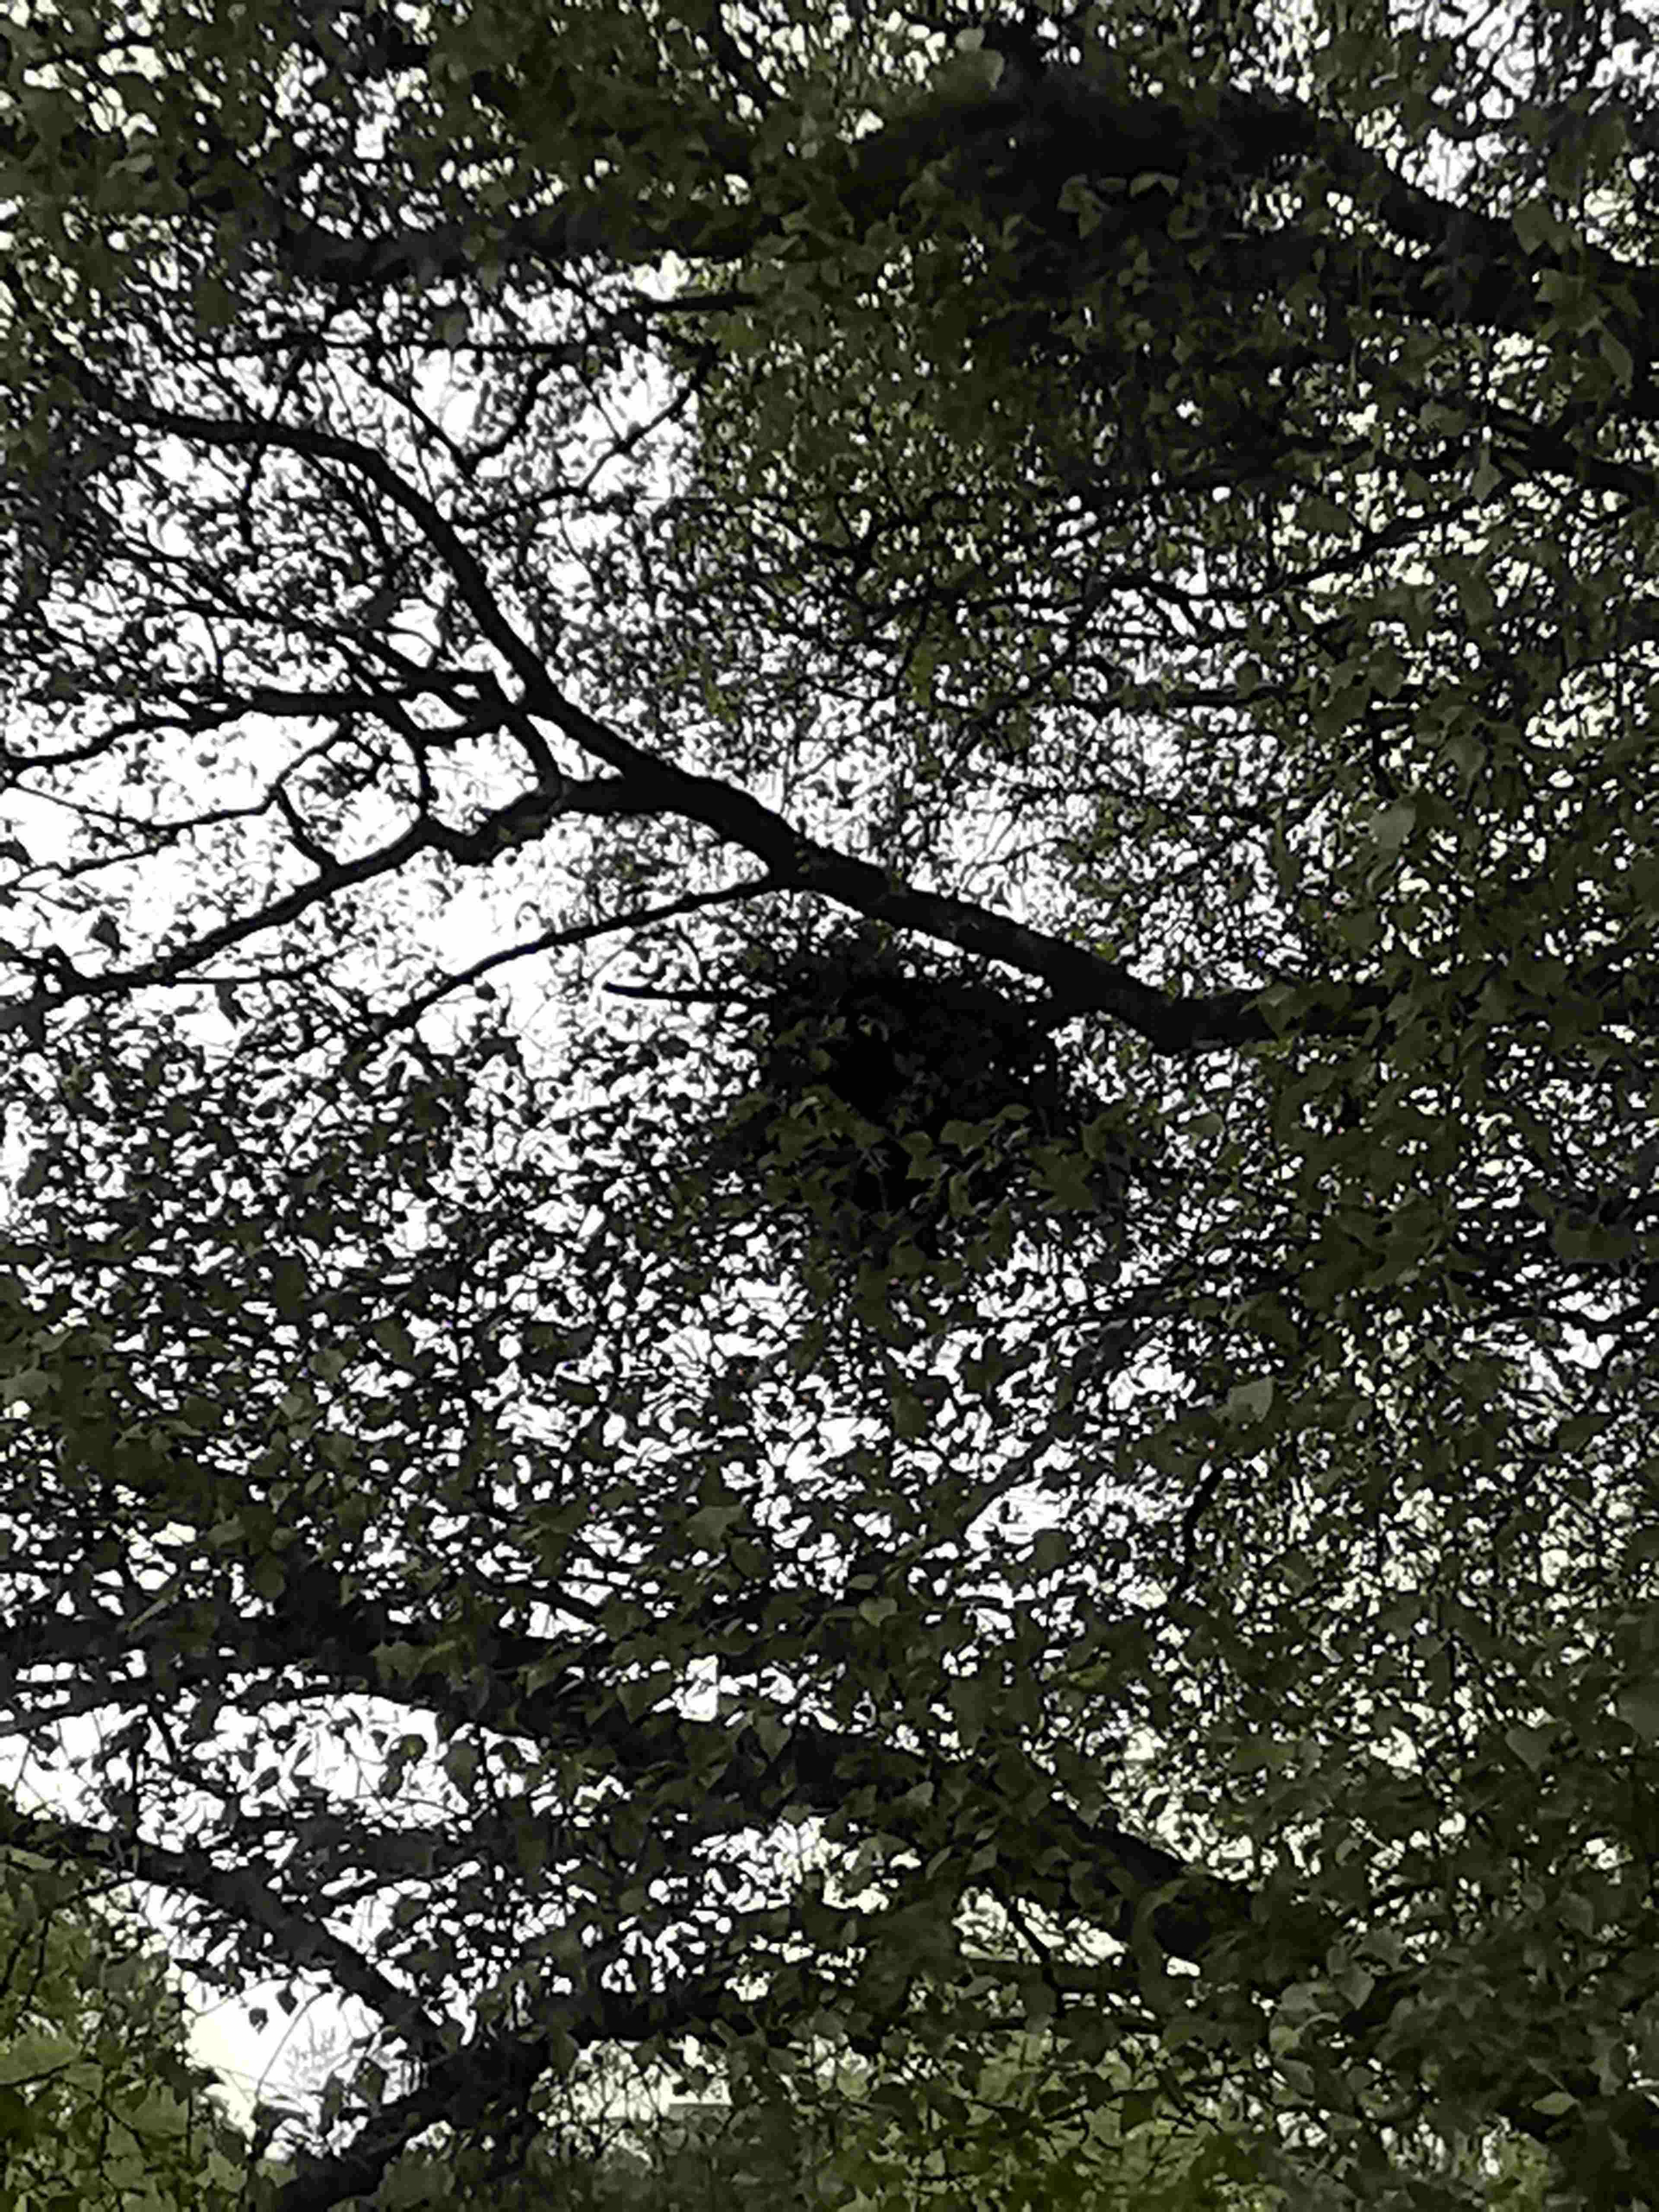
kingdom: Fungi
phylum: Ascomycota
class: Taphrinomycetes
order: Taphrinales
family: Taphrinaceae
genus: Taphrina
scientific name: Taphrina betulina
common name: hekse-sækdug
